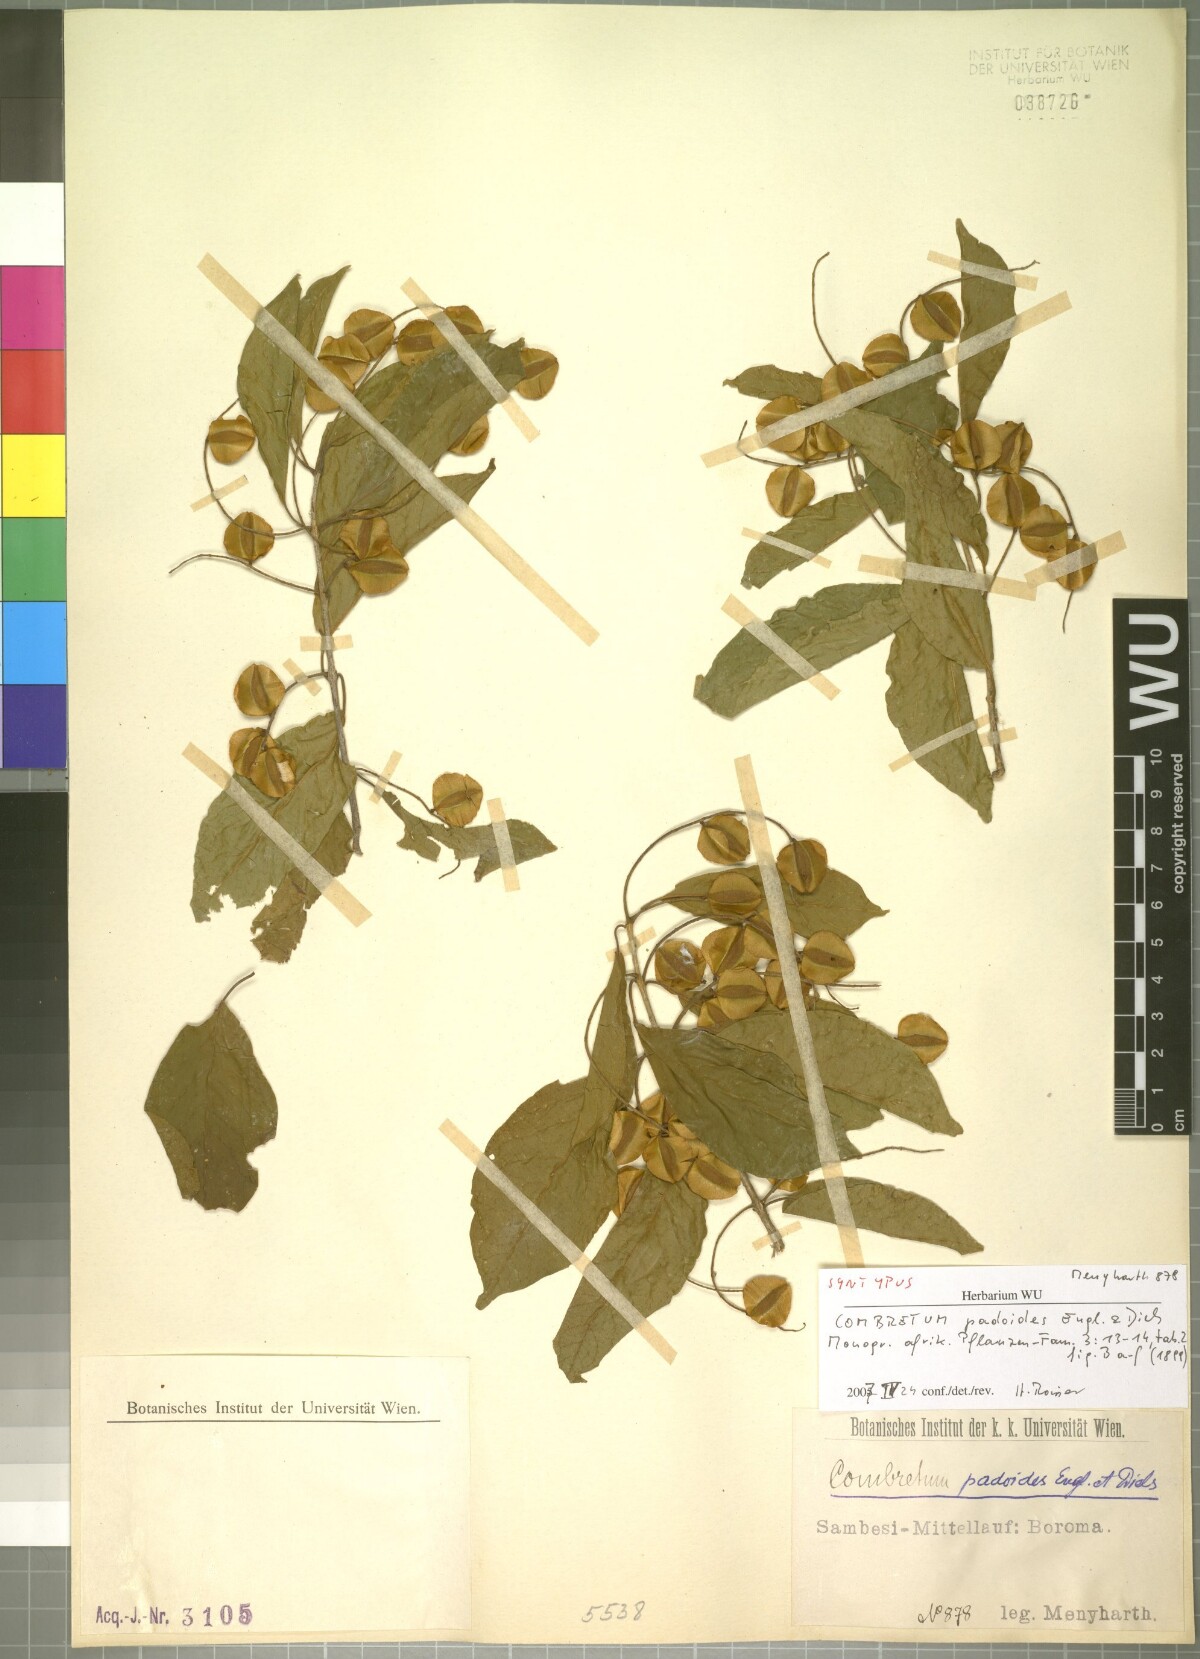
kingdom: Plantae
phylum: Tracheophyta
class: Magnoliopsida
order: Myrtales
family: Combretaceae
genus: Combretum
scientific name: Combretum padoides
